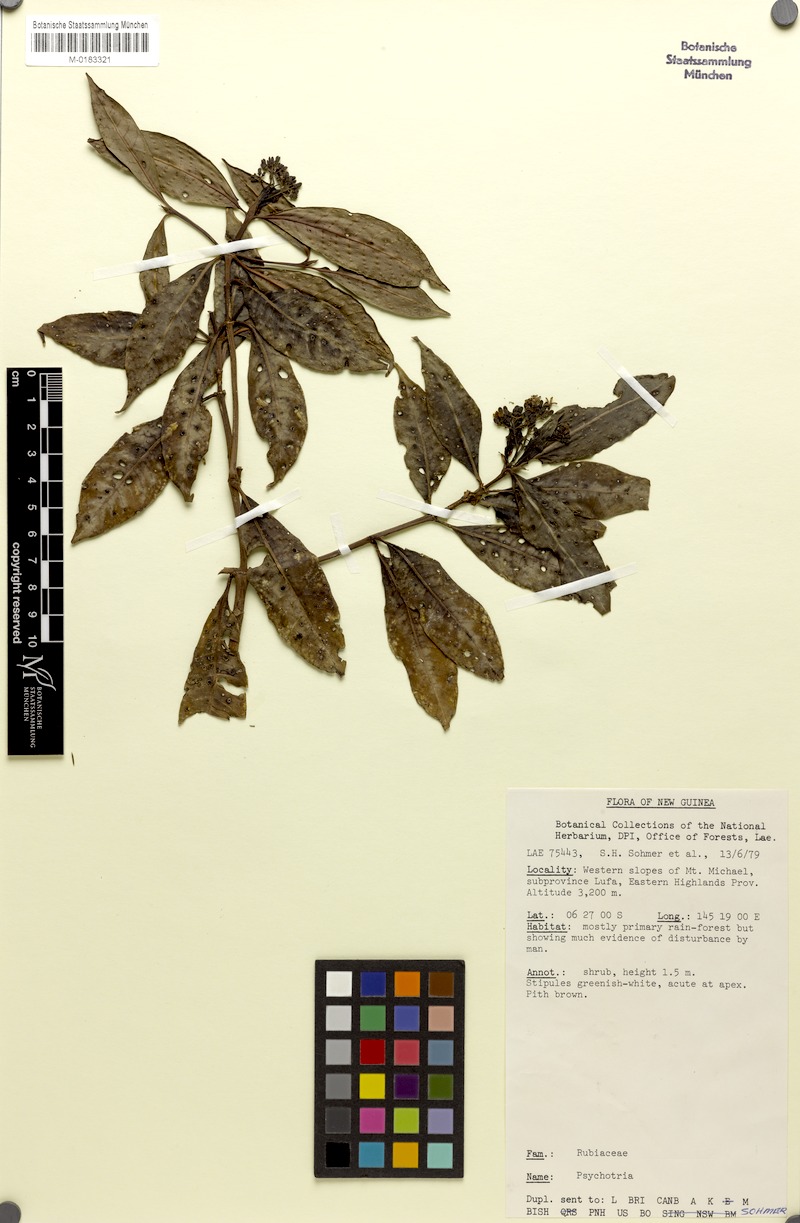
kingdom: Plantae
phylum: Tracheophyta
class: Magnoliopsida
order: Gentianales
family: Rubiaceae
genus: Psychotria
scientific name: Psychotria valetoniana
